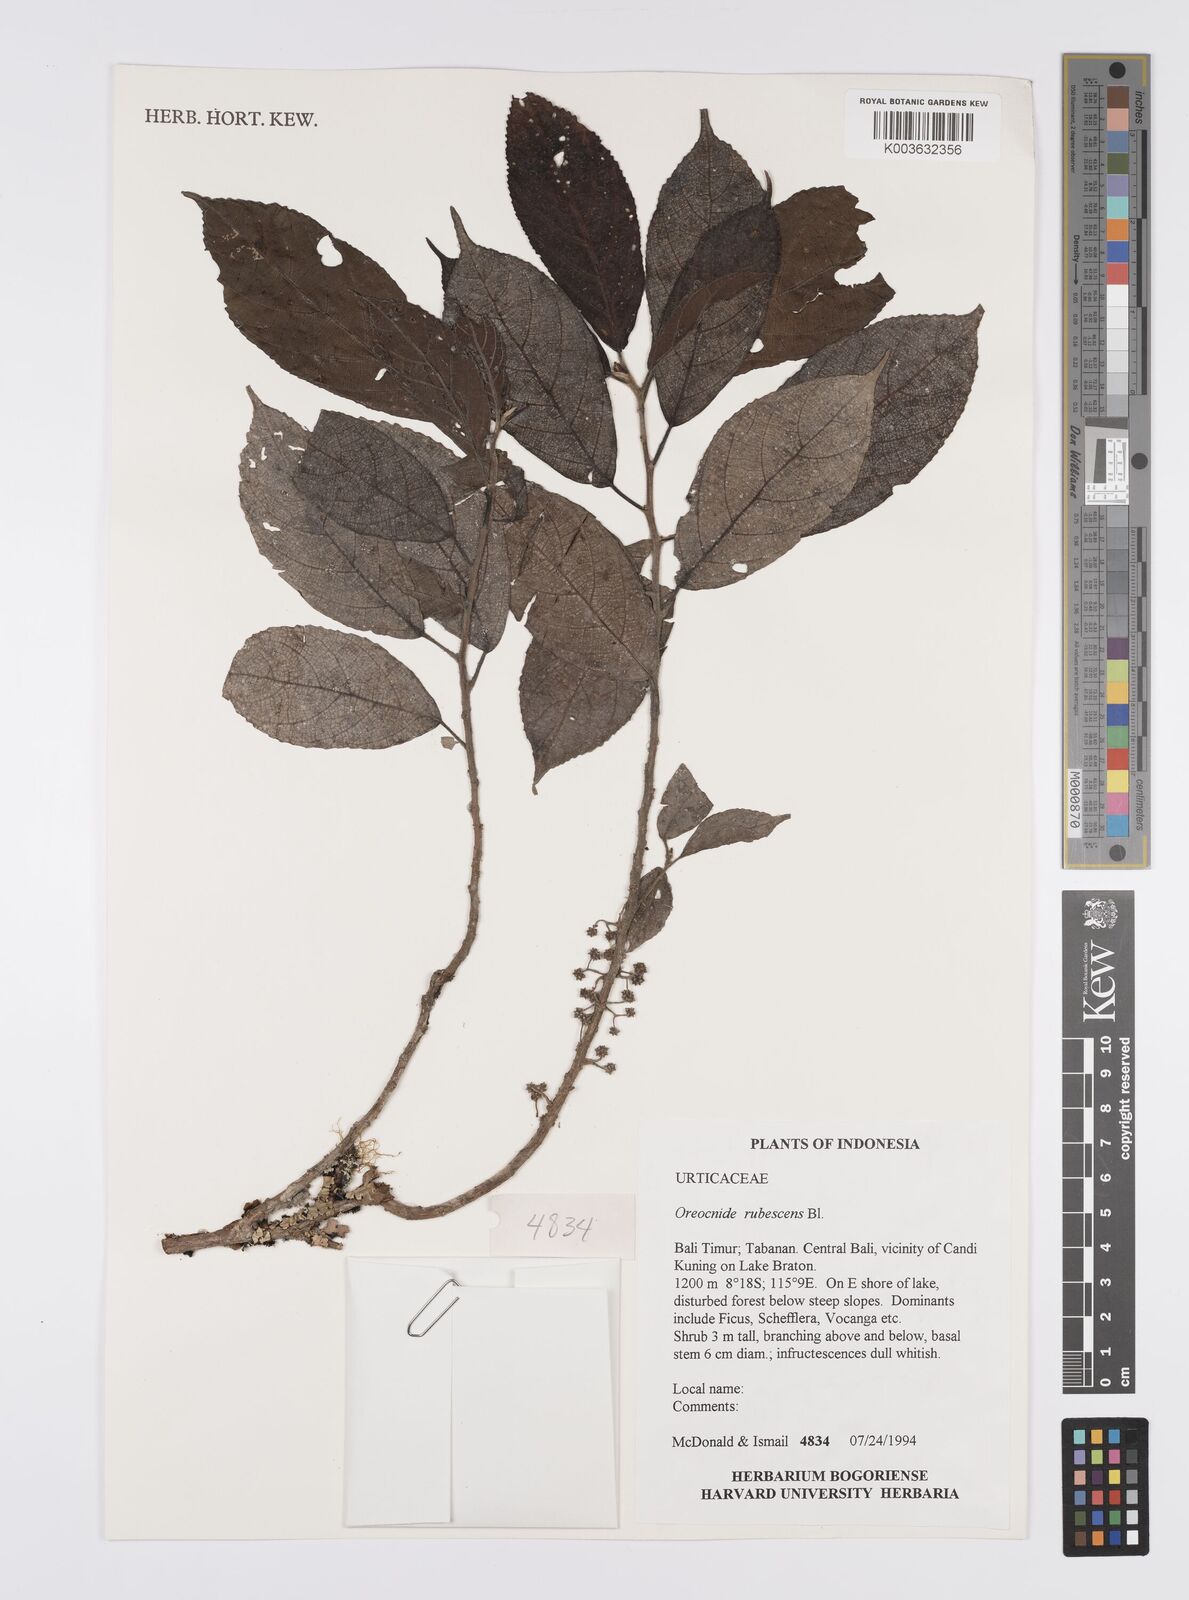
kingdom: Plantae
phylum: Tracheophyta
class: Magnoliopsida
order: Rosales
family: Urticaceae
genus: Oreocnide
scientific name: Oreocnide rubescens
